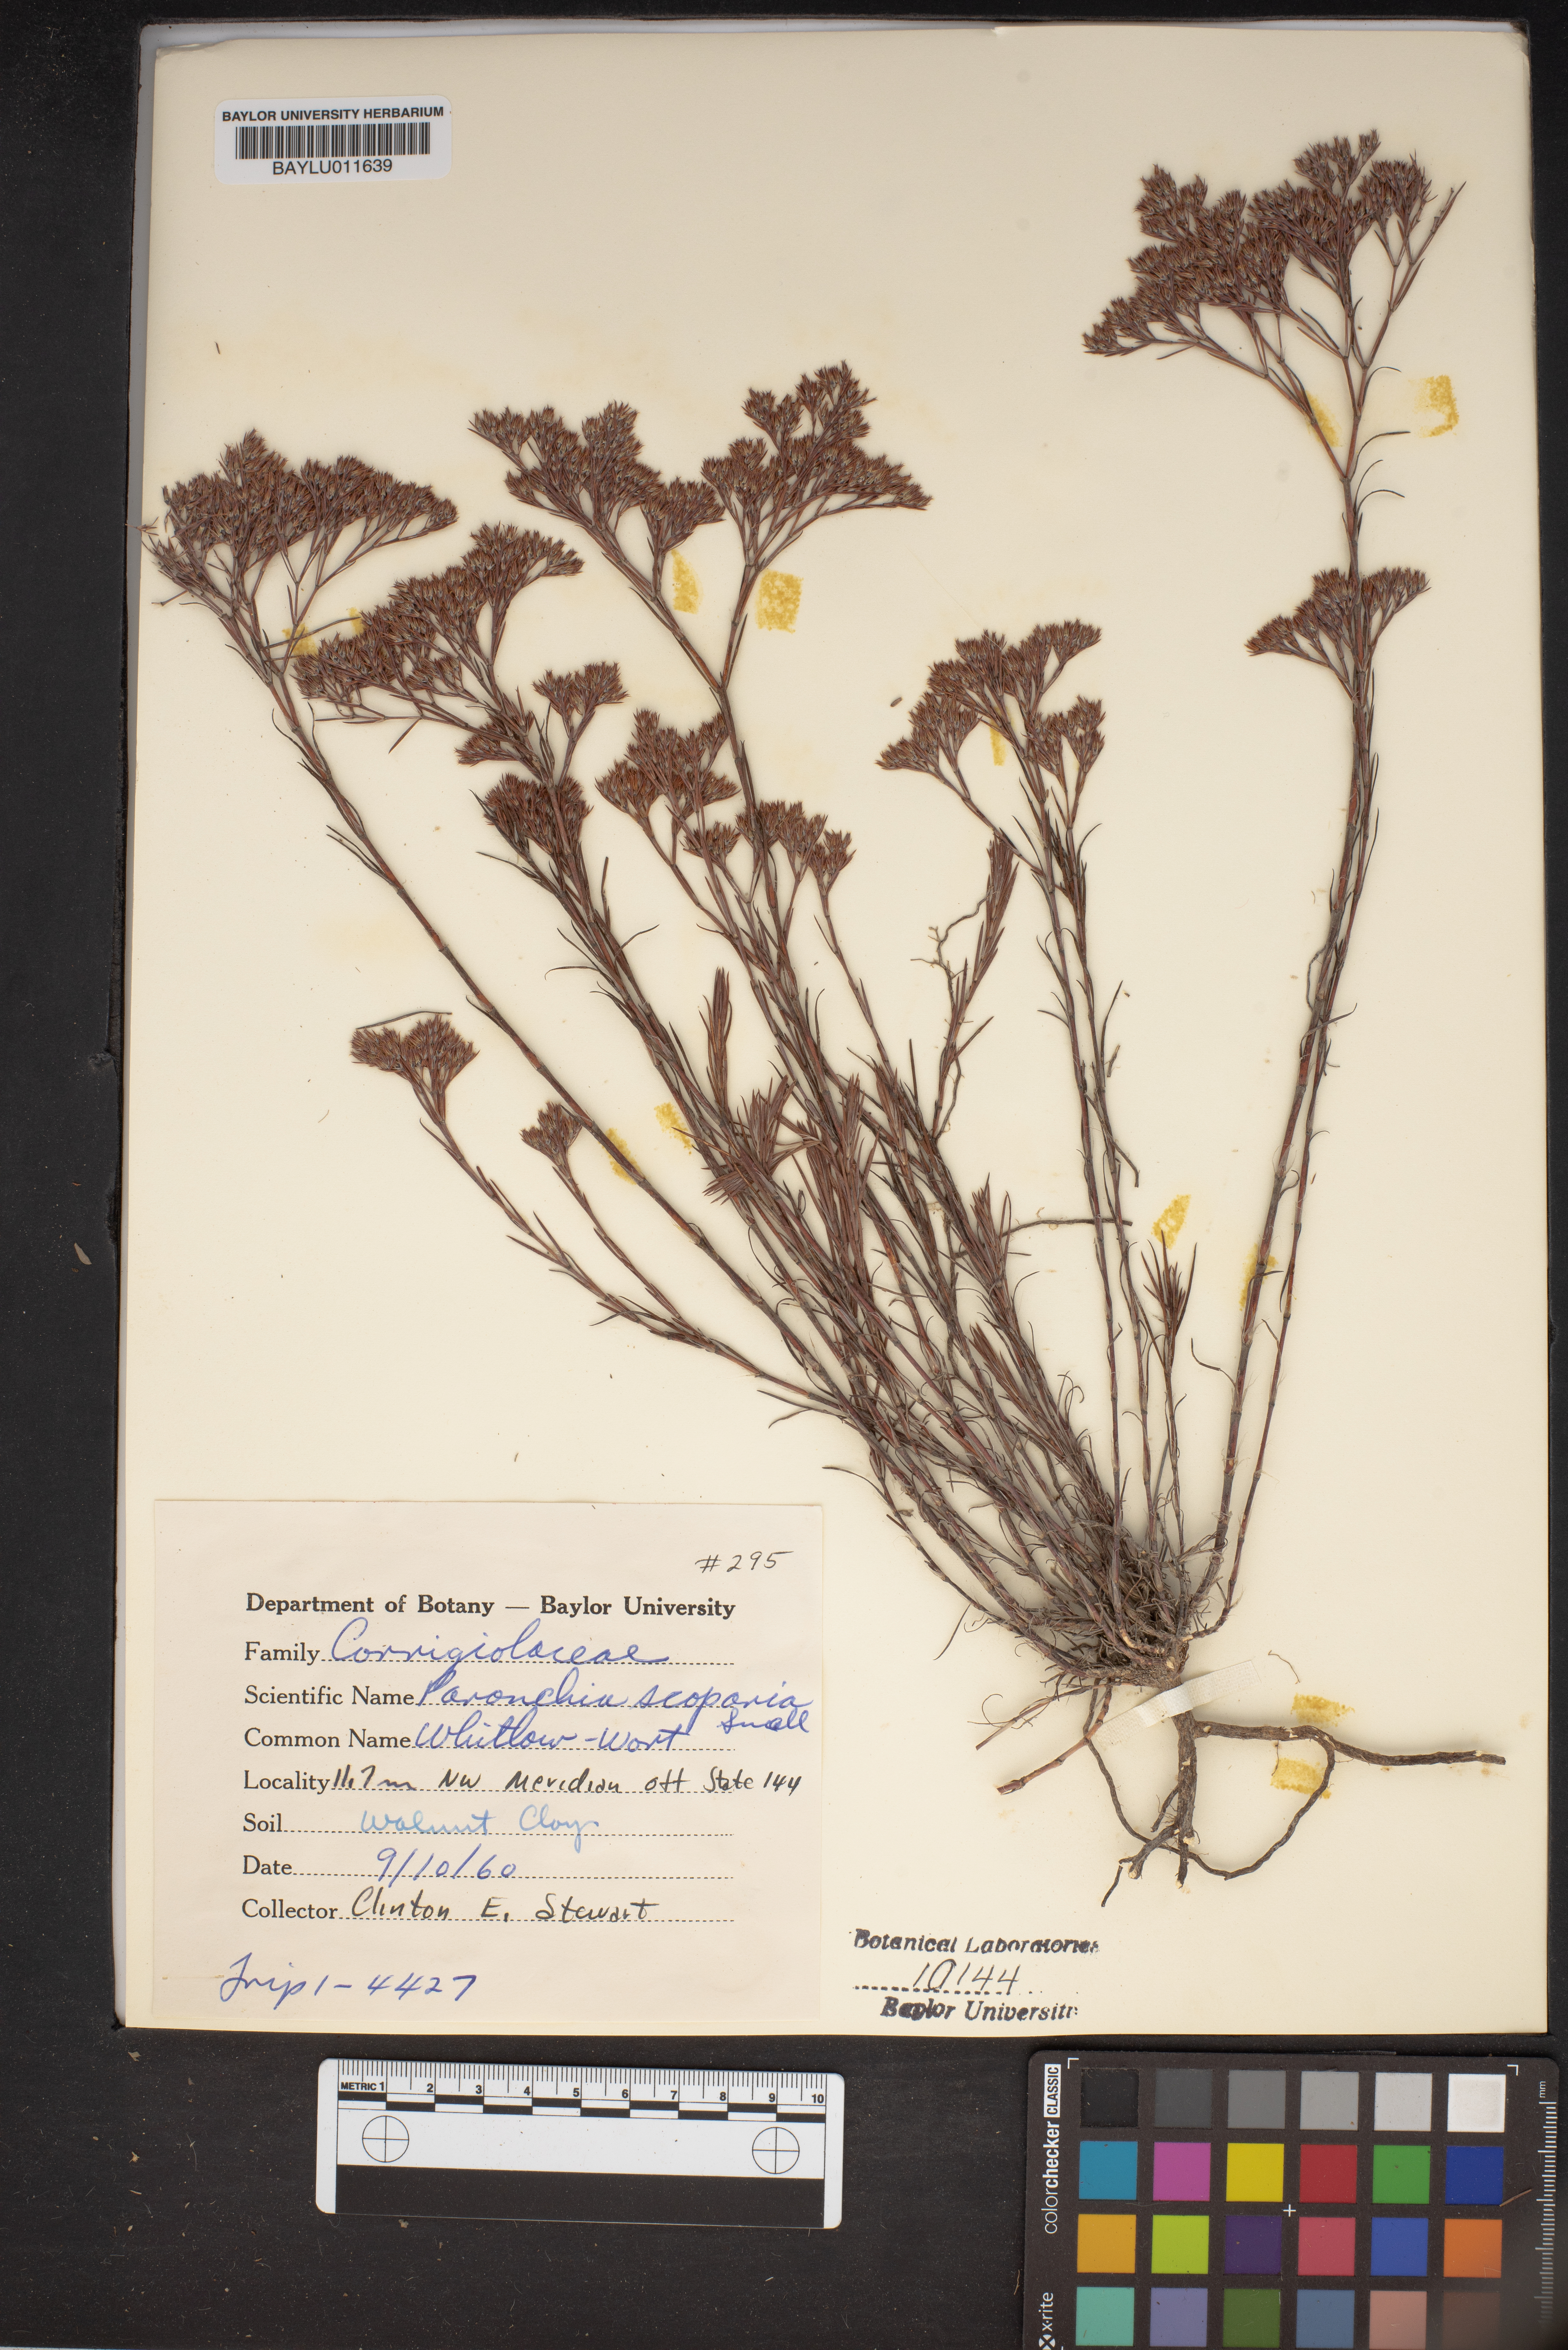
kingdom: Plantae
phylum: Tracheophyta
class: Magnoliopsida
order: Caryophyllales
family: Caryophyllaceae
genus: Paronychia
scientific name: Paronychia virginica
